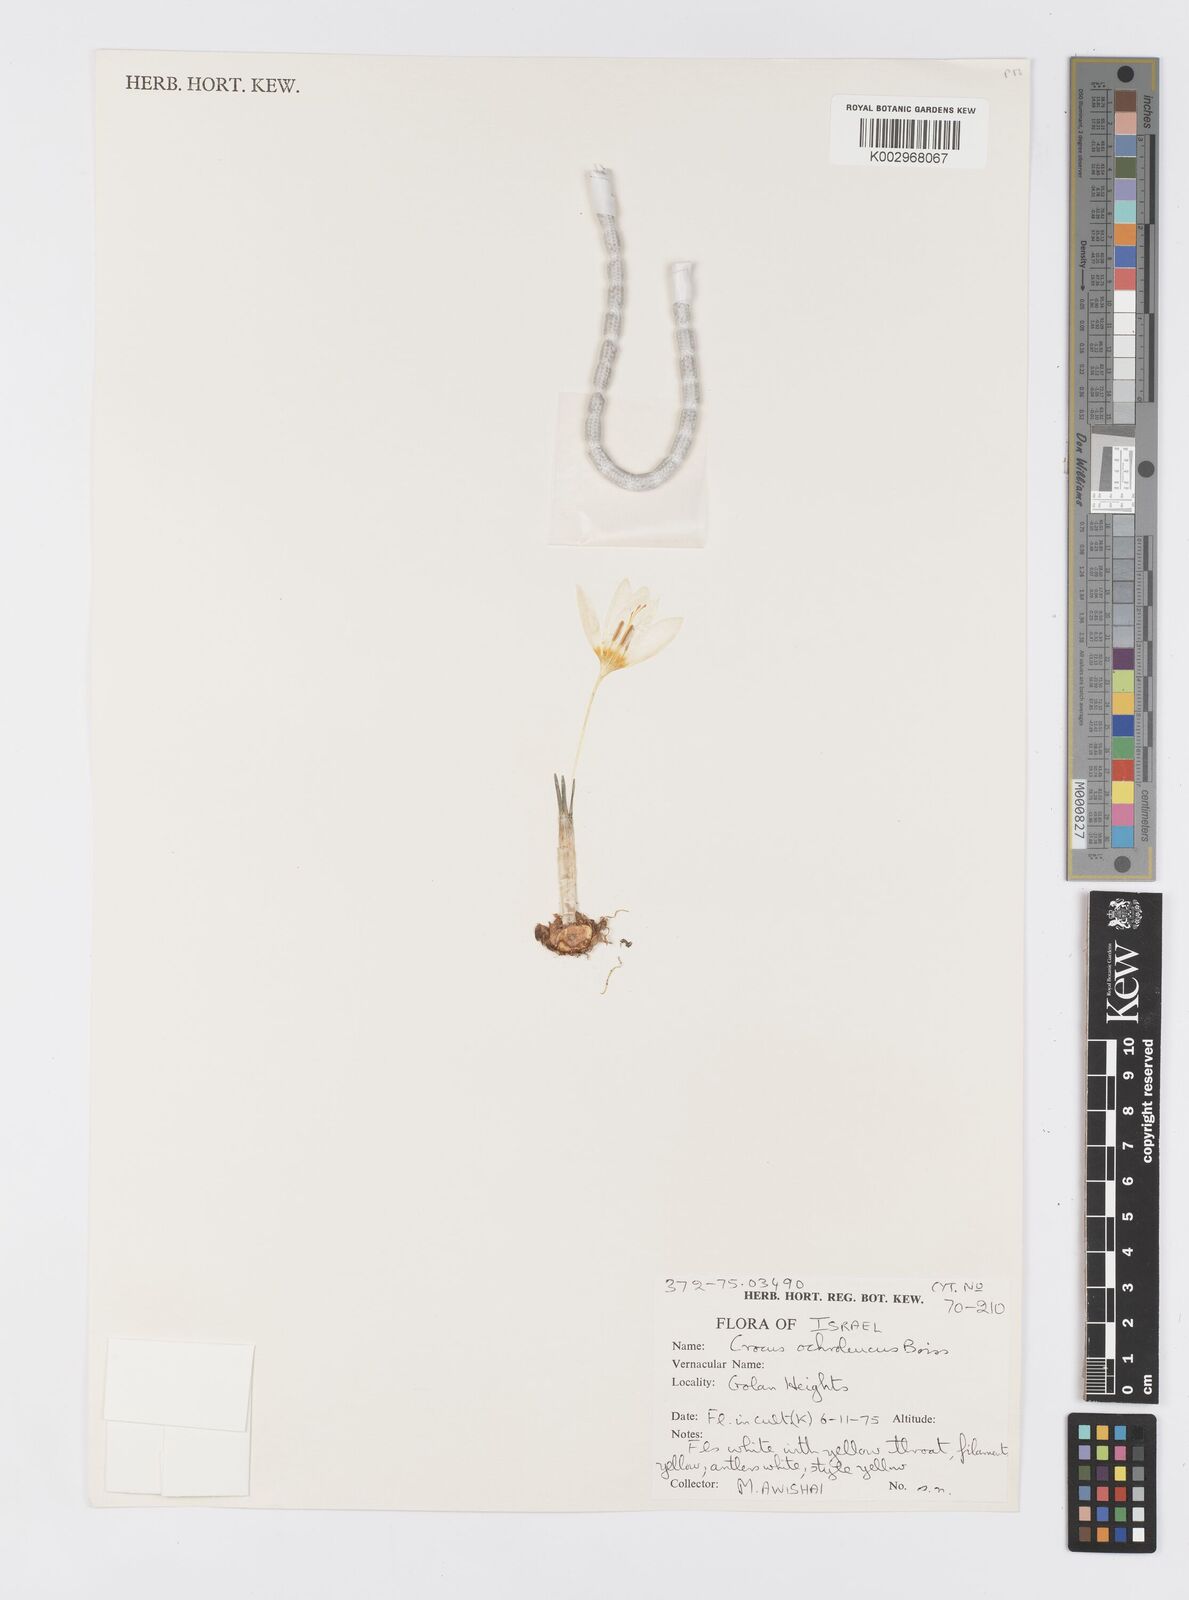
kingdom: Plantae
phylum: Tracheophyta
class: Liliopsida
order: Asparagales
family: Iridaceae
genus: Crocus
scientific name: Crocus ochroleucus
